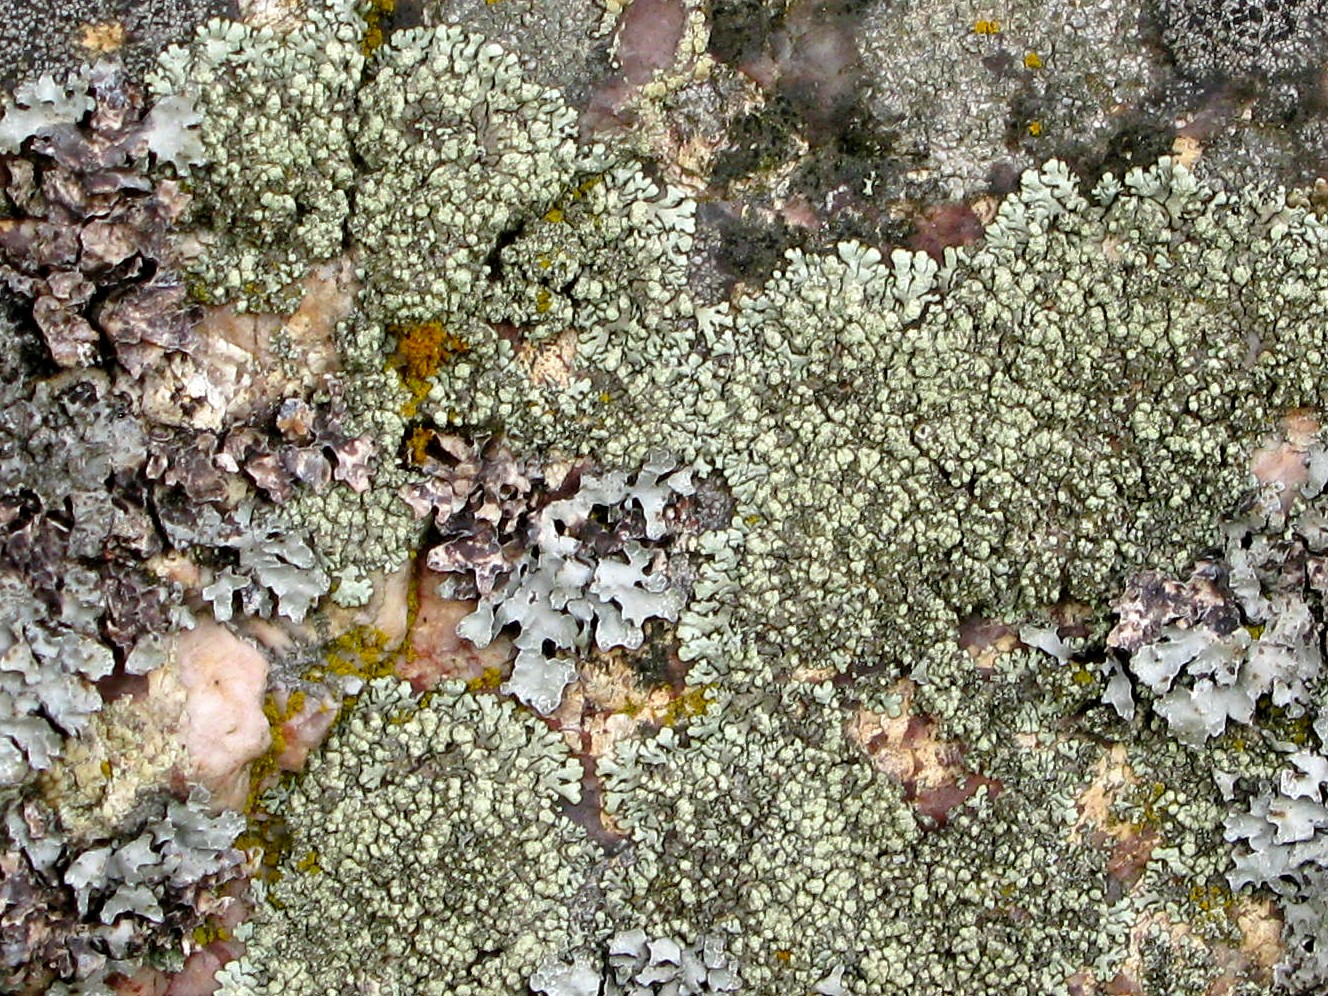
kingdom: Fungi
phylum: Ascomycota
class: Lecanoromycetes
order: Lecanorales
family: Parmeliaceae
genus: Xanthoparmelia
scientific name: Xanthoparmelia mougeotii
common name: liden skållav
